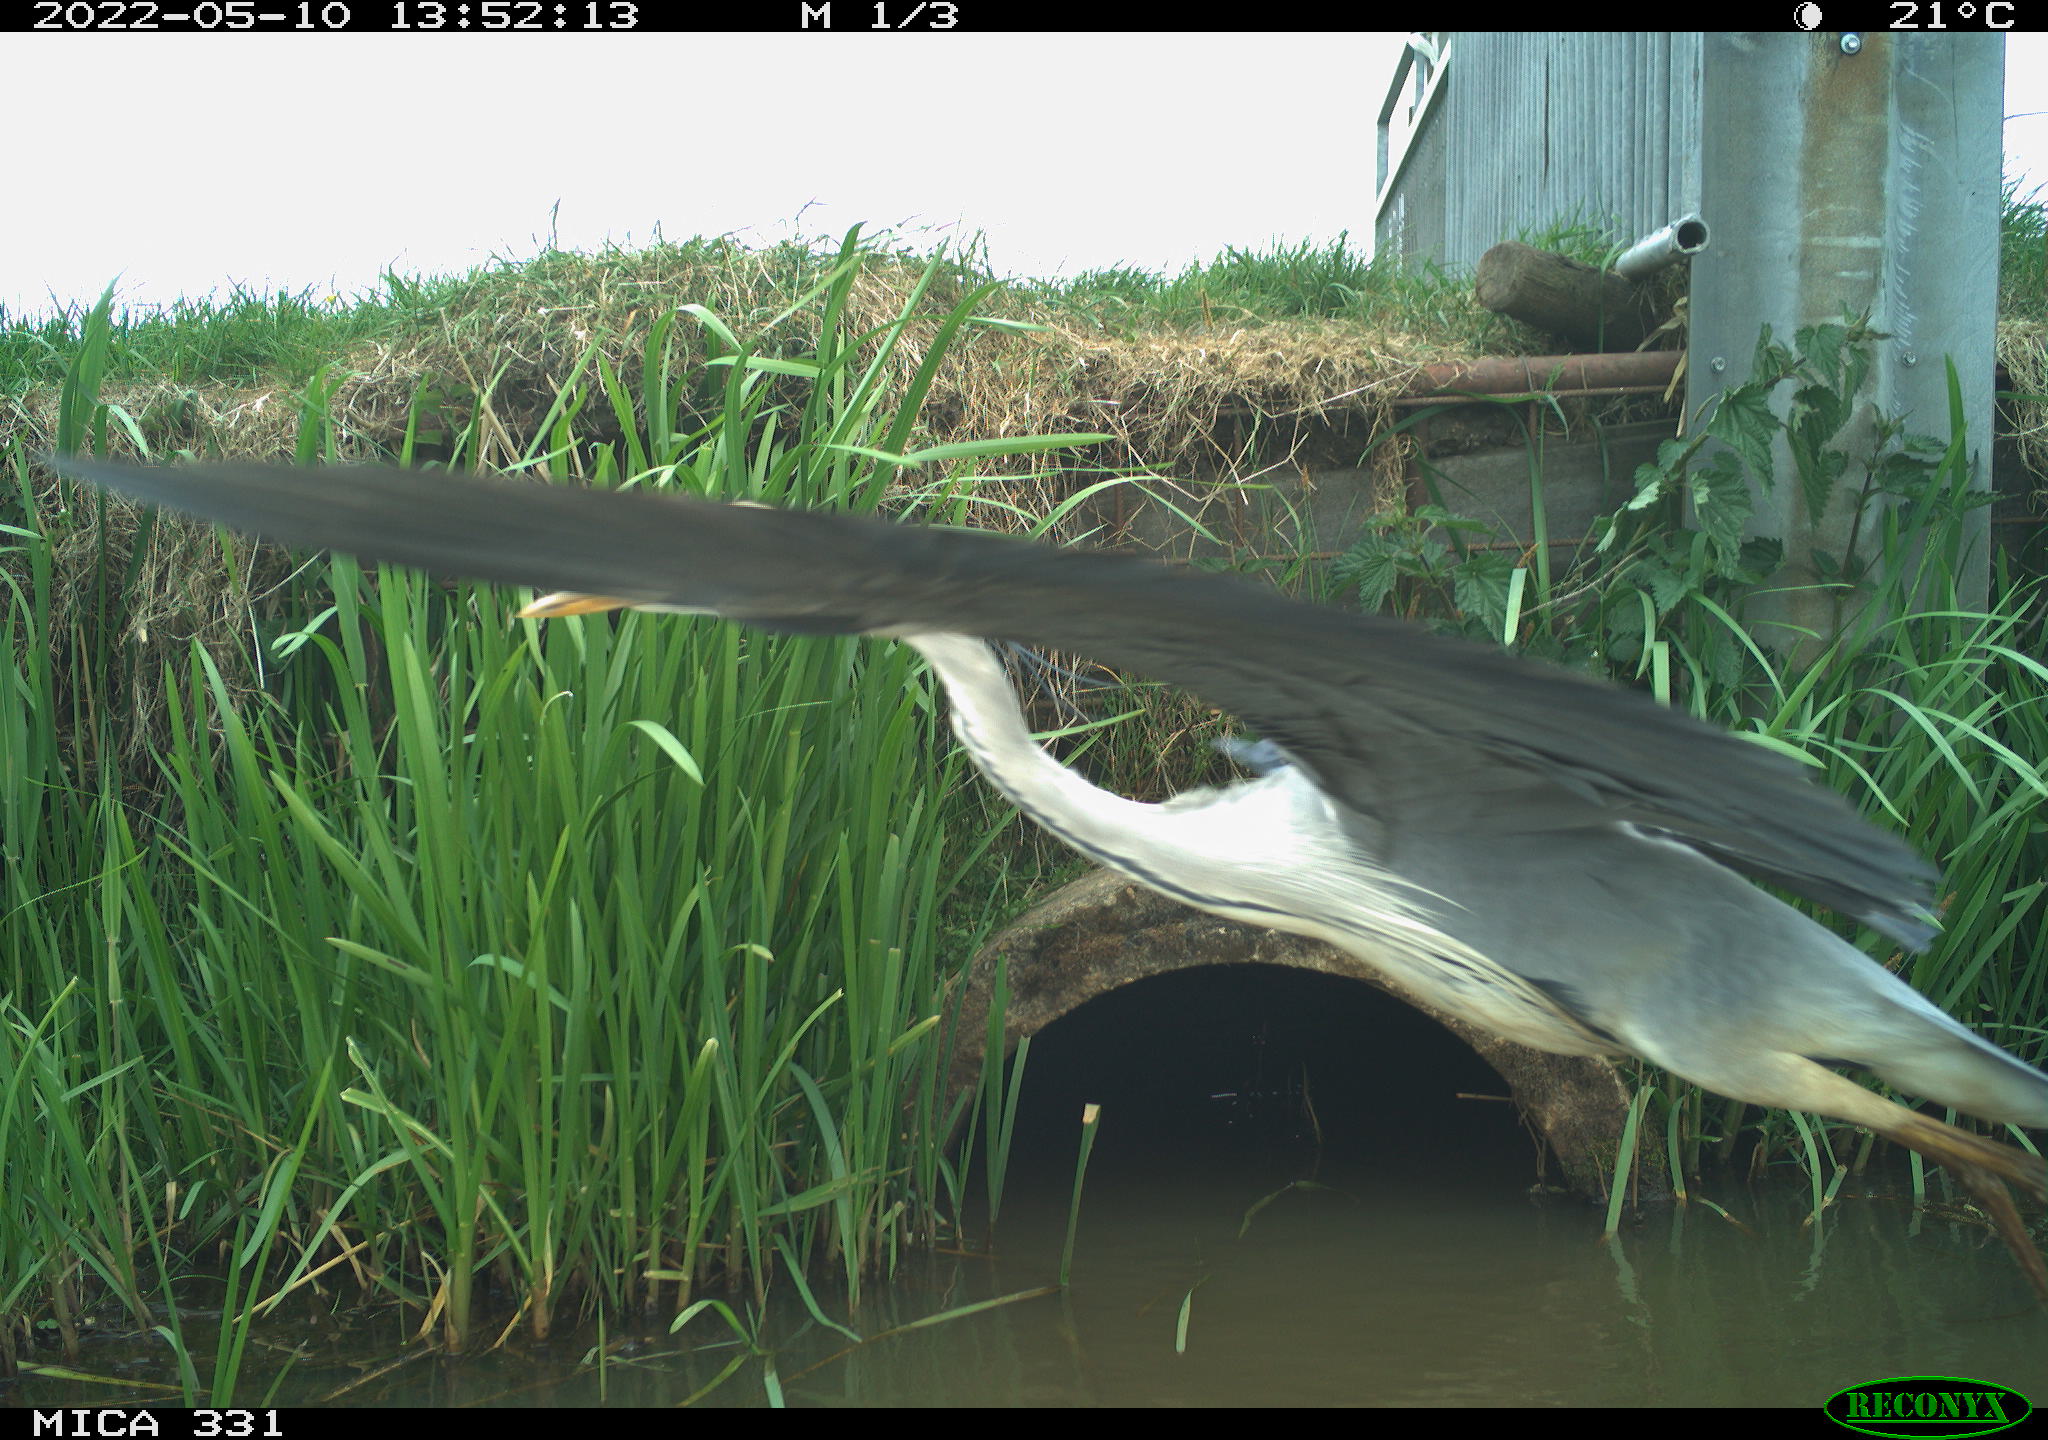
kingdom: Animalia
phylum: Chordata
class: Aves
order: Pelecaniformes
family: Ardeidae
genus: Ardea
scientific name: Ardea
